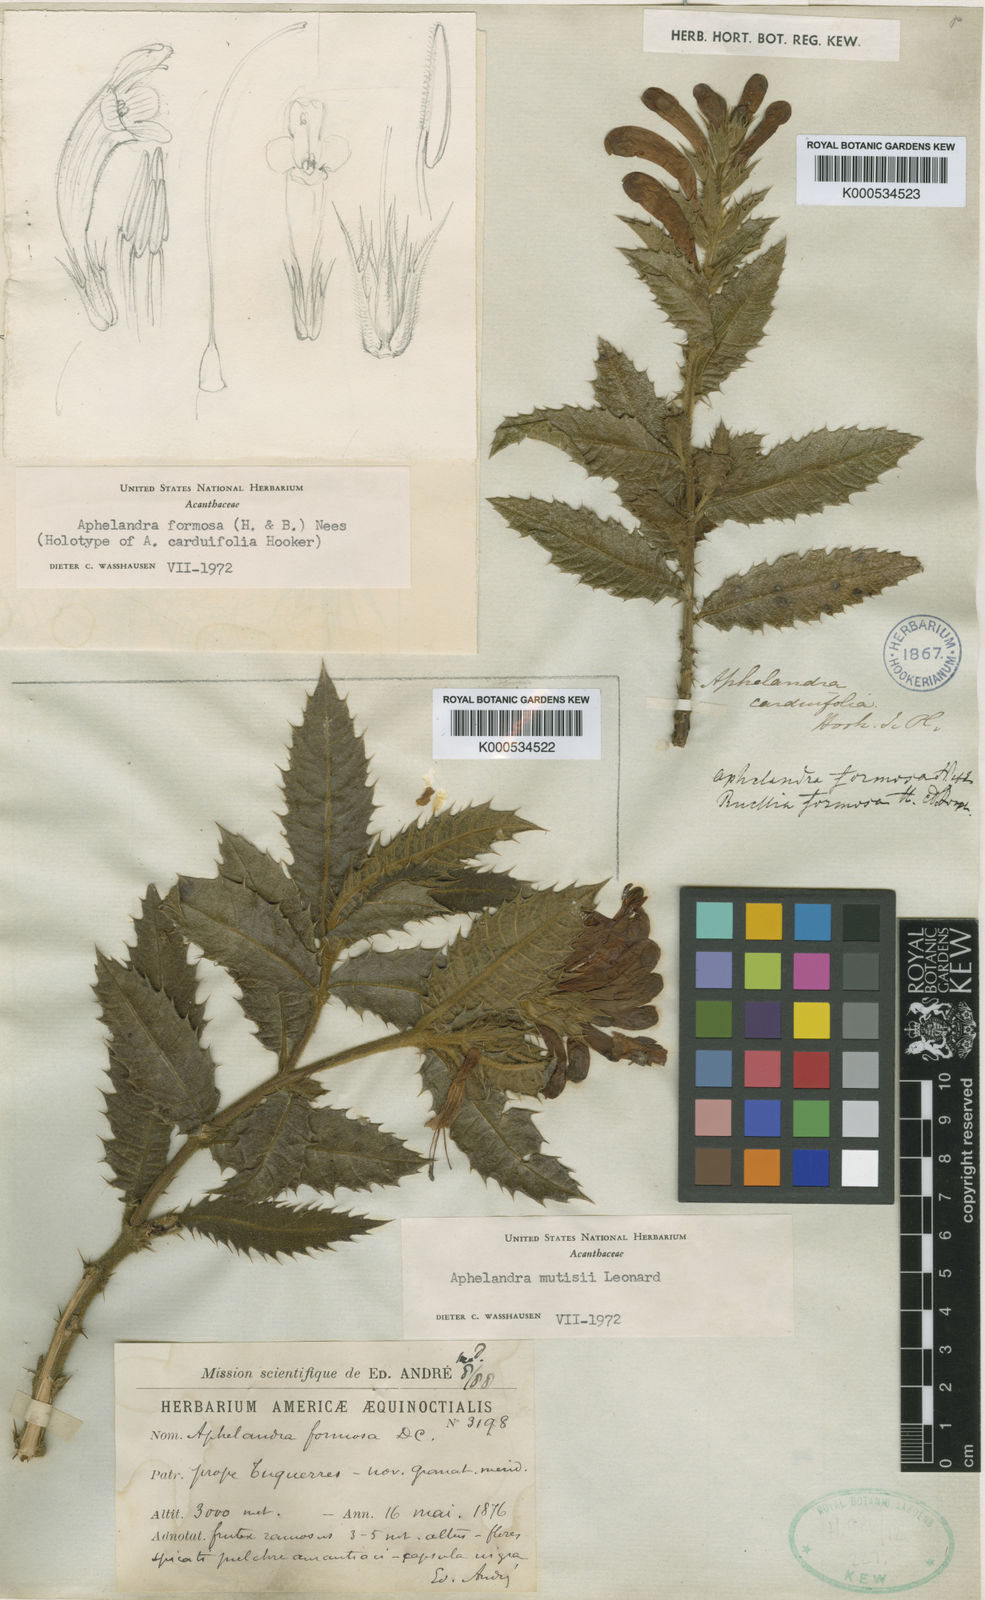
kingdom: Plantae
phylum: Tracheophyta
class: Magnoliopsida
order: Lamiales
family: Acanthaceae
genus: Aphelandra
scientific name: Aphelandra formosa
